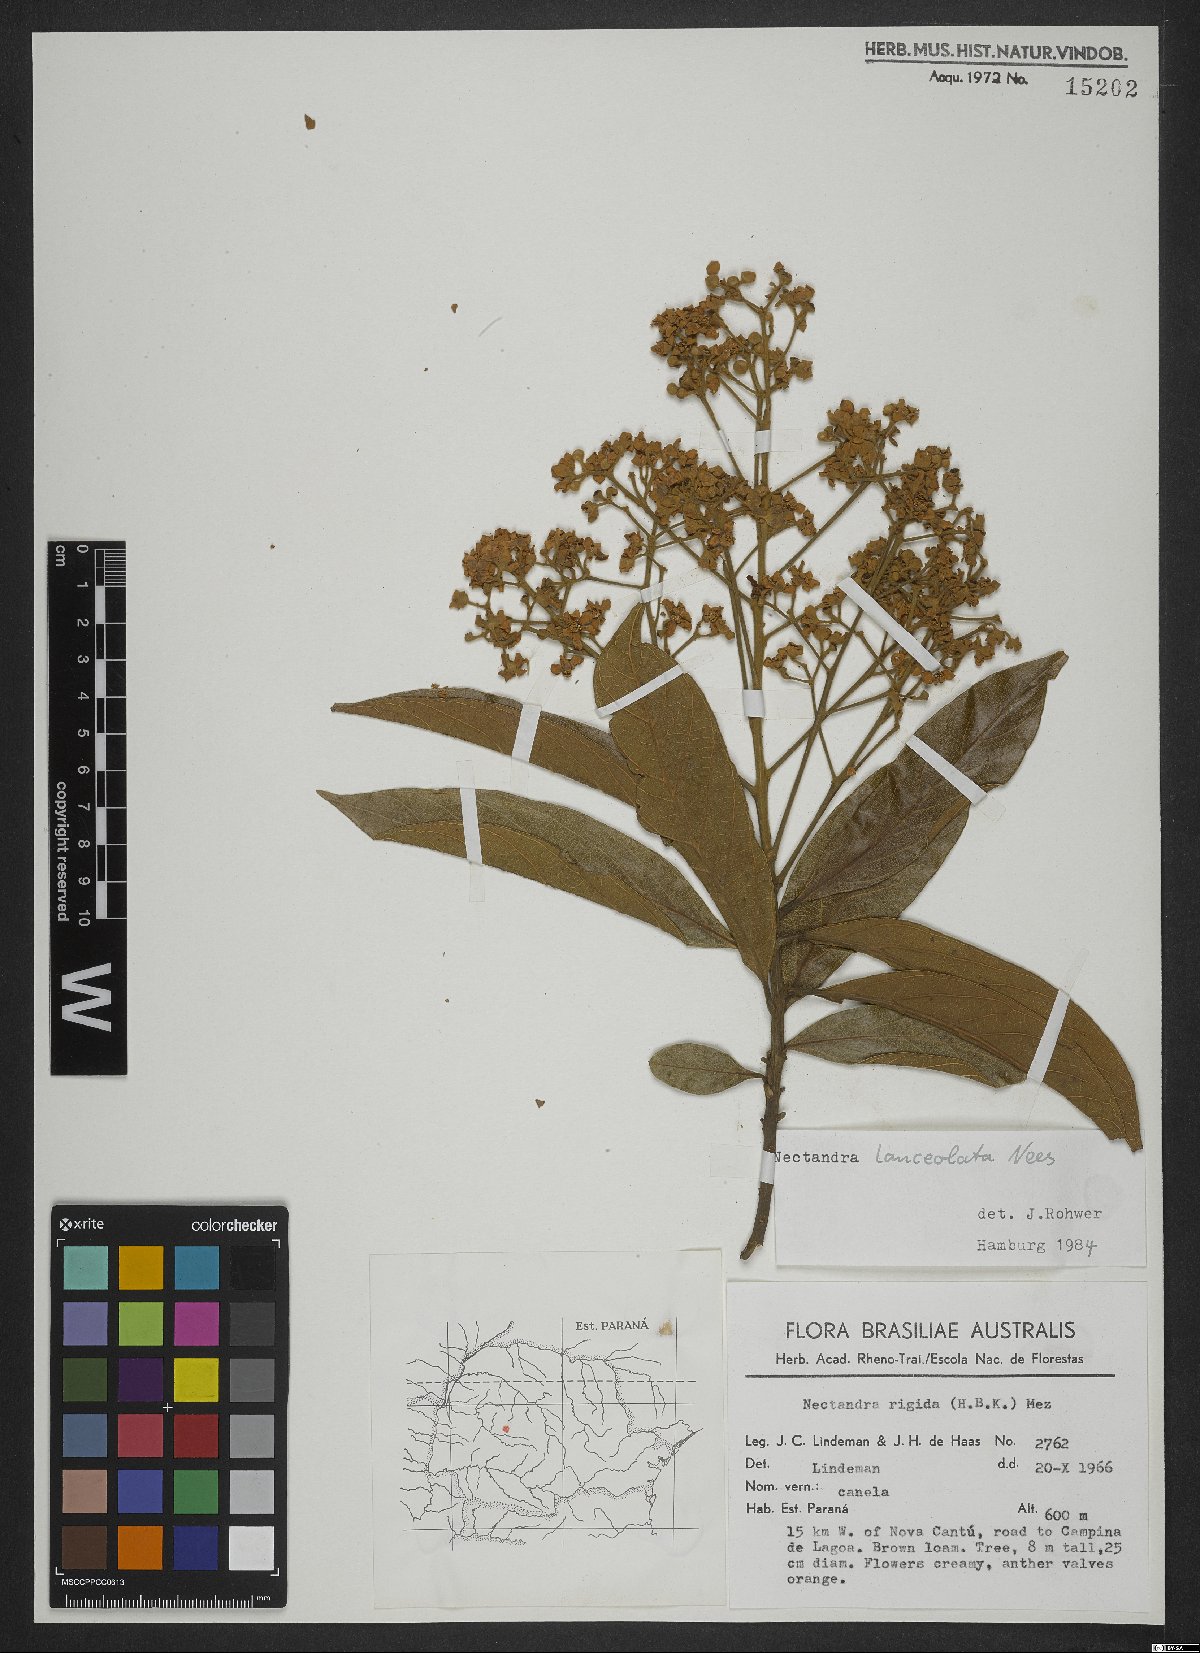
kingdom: Plantae
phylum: Tracheophyta
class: Magnoliopsida
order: Laurales
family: Lauraceae
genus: Nectandra
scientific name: Nectandra lanceolata
